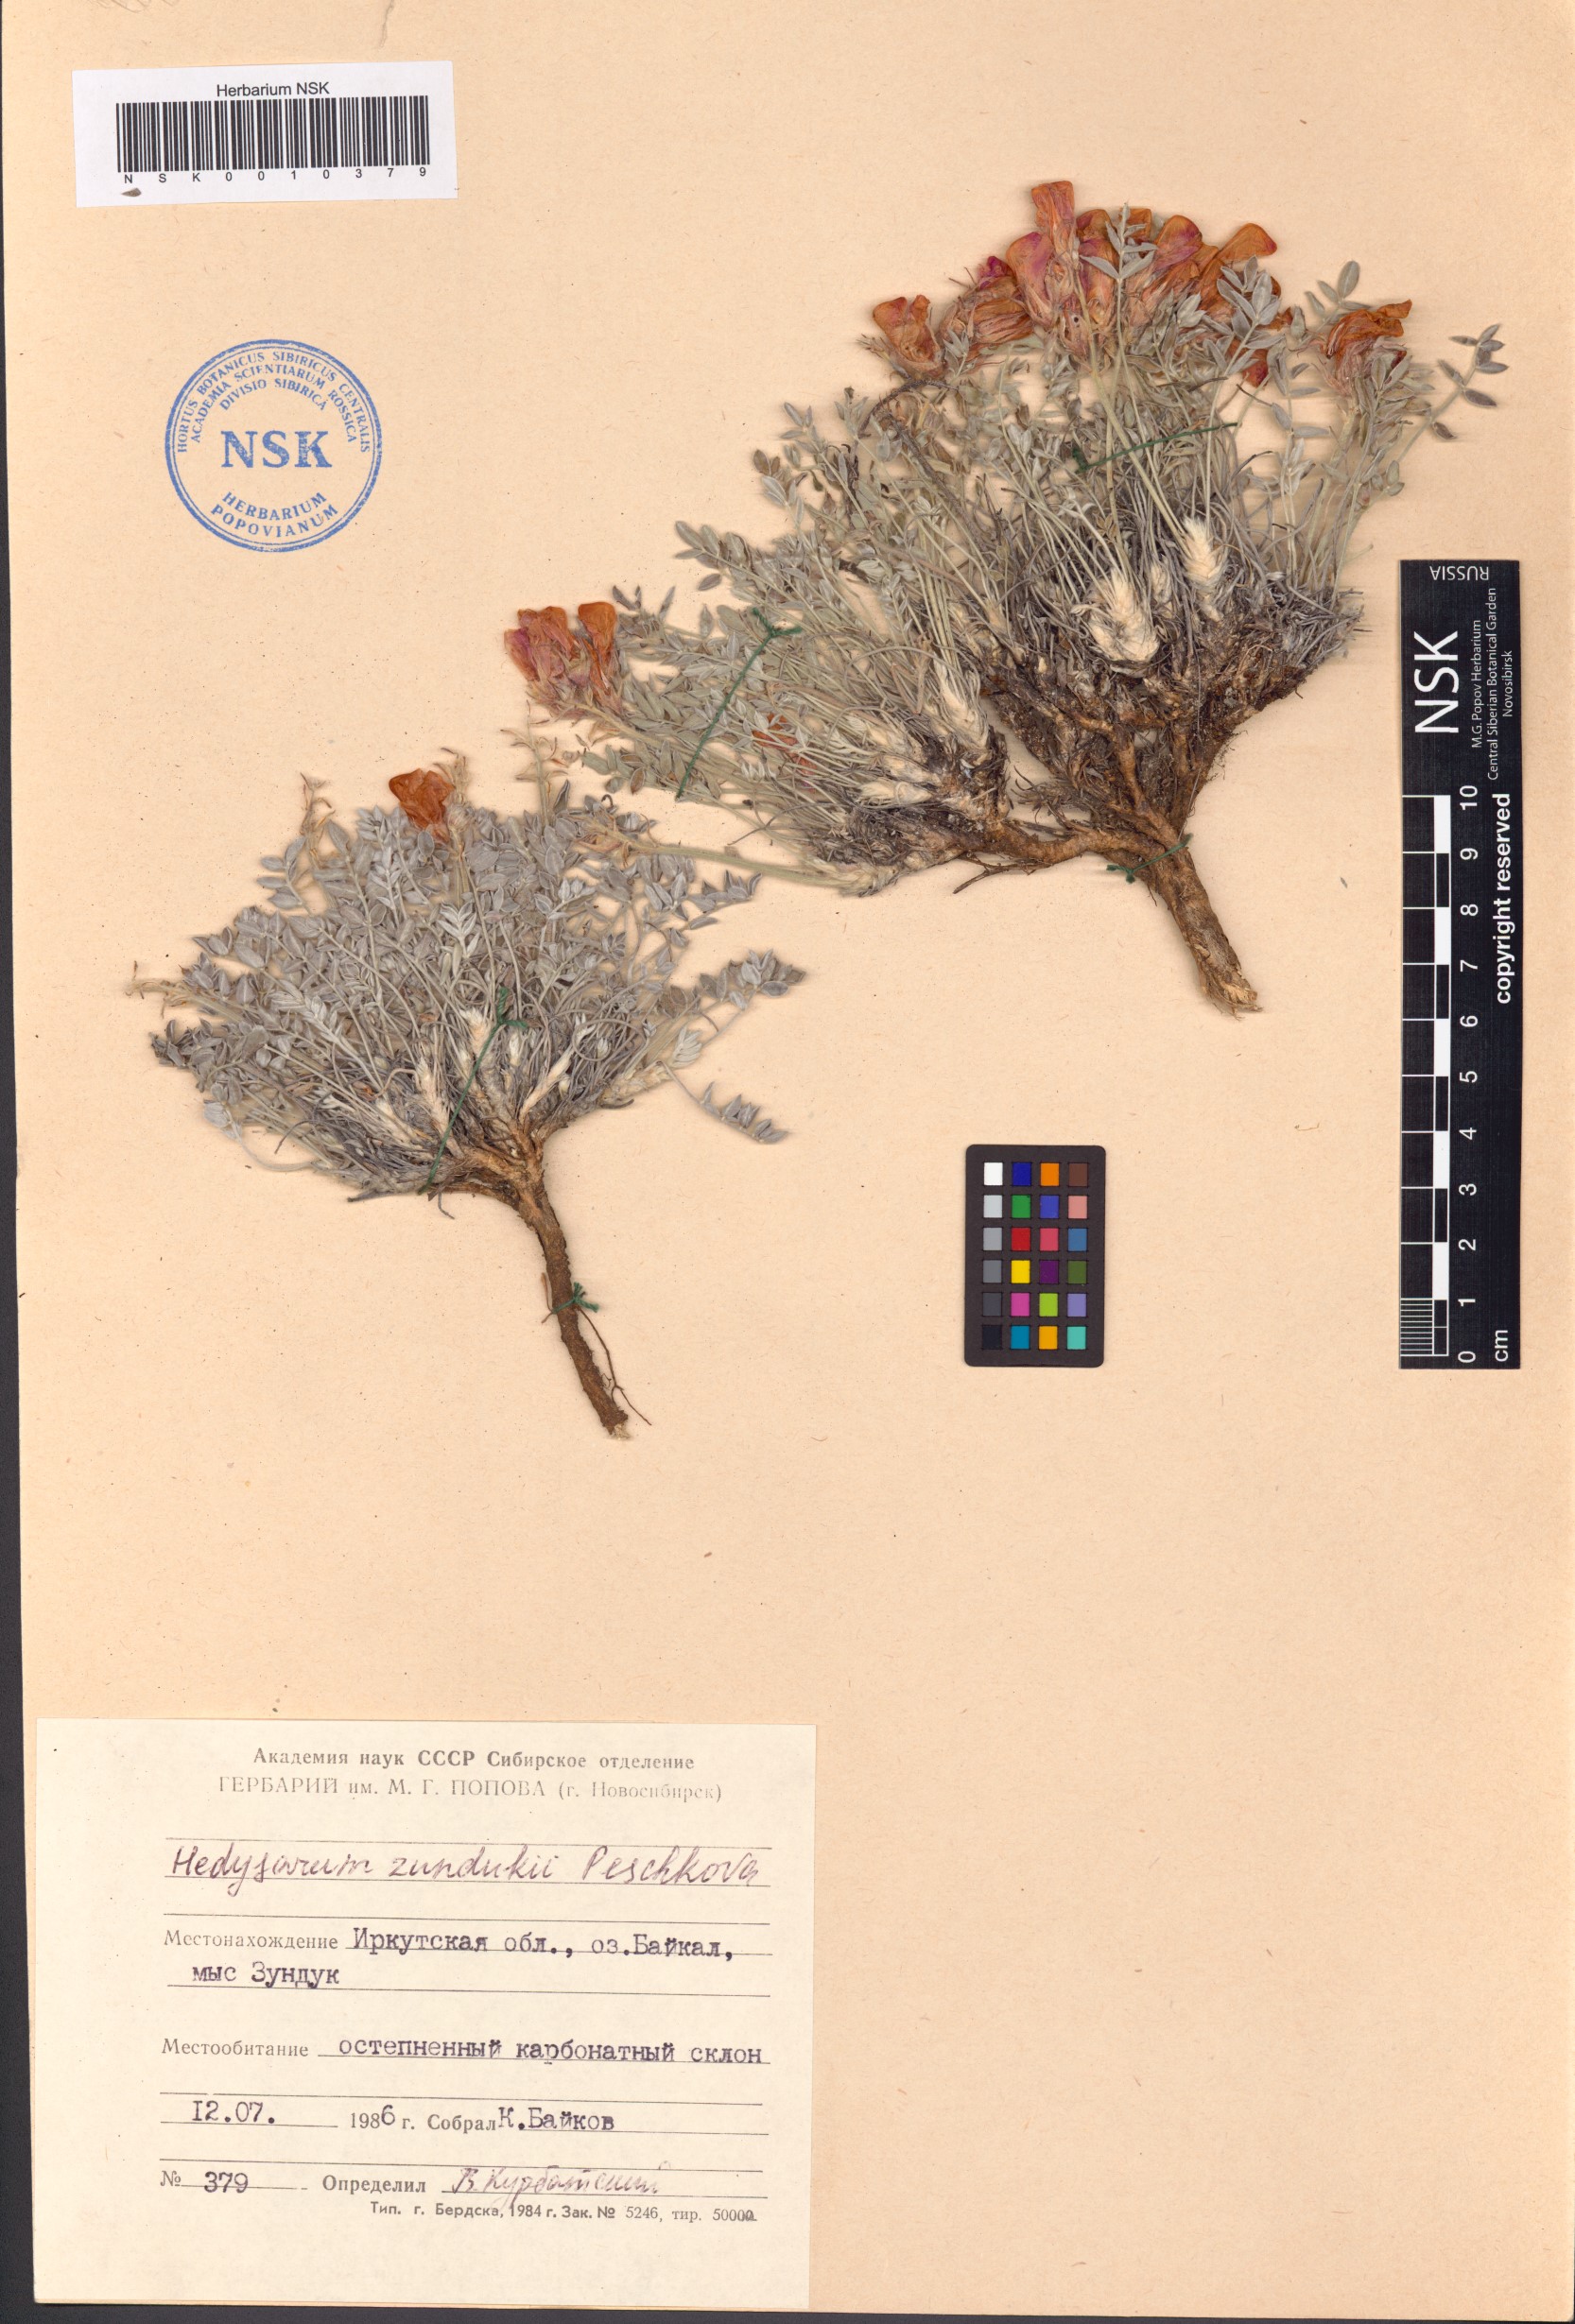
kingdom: Plantae
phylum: Tracheophyta
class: Magnoliopsida
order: Fabales
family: Fabaceae
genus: Hedysarum
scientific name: Hedysarum zundukii
